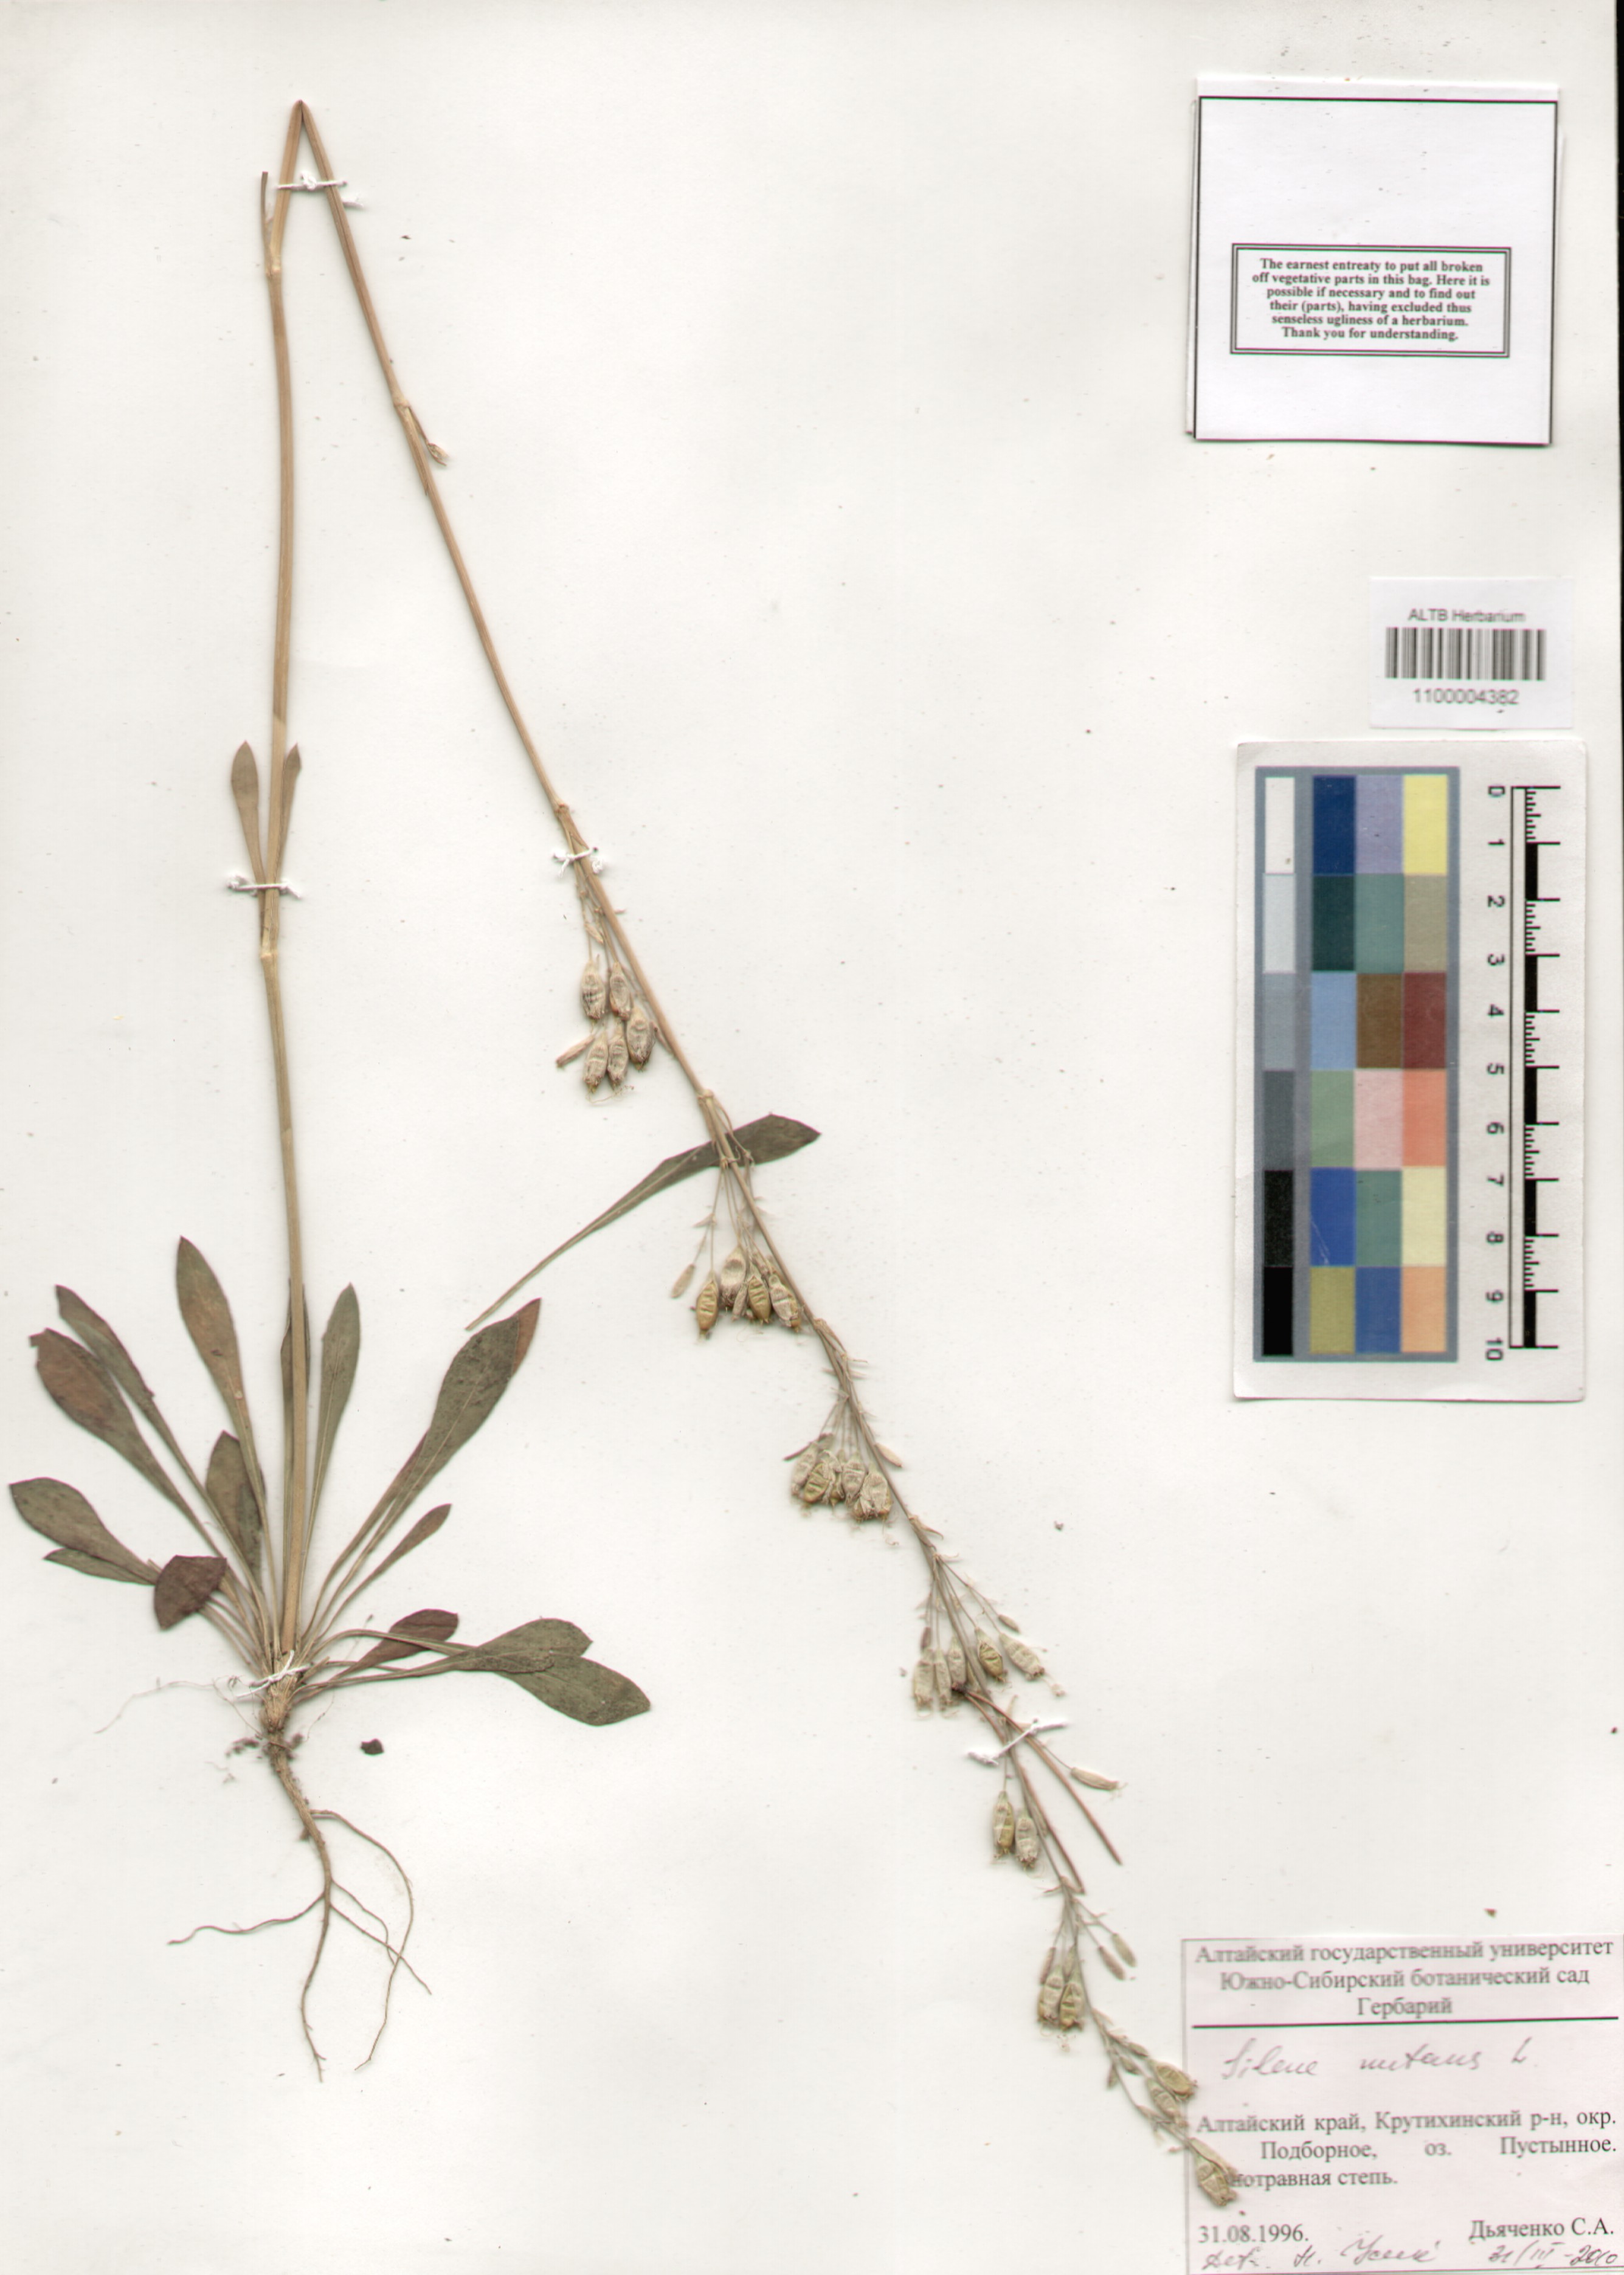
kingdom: Plantae
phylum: Tracheophyta
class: Magnoliopsida
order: Caryophyllales
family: Caryophyllaceae
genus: Silene
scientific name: Silene nutans
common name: Nottingham catchfly
